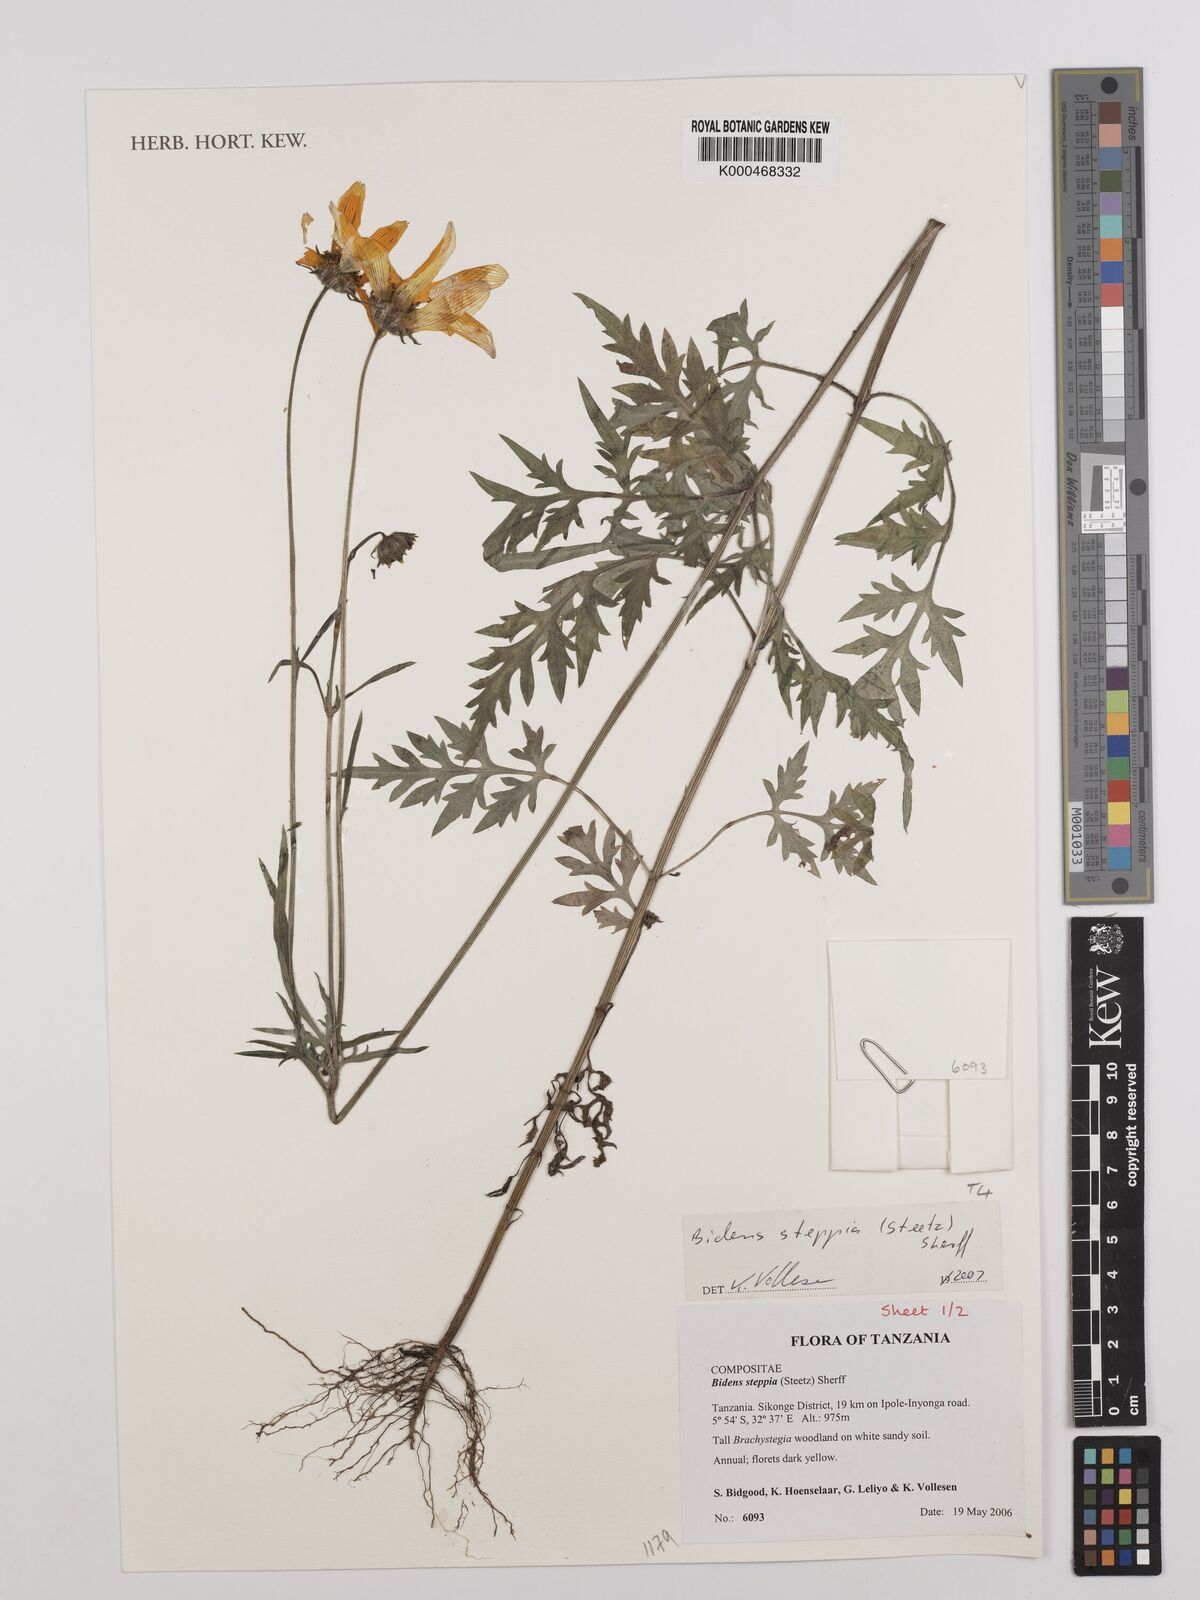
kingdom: Plantae
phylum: Tracheophyta
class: Magnoliopsida
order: Asterales
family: Asteraceae
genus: Bidens
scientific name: Bidens steppia
